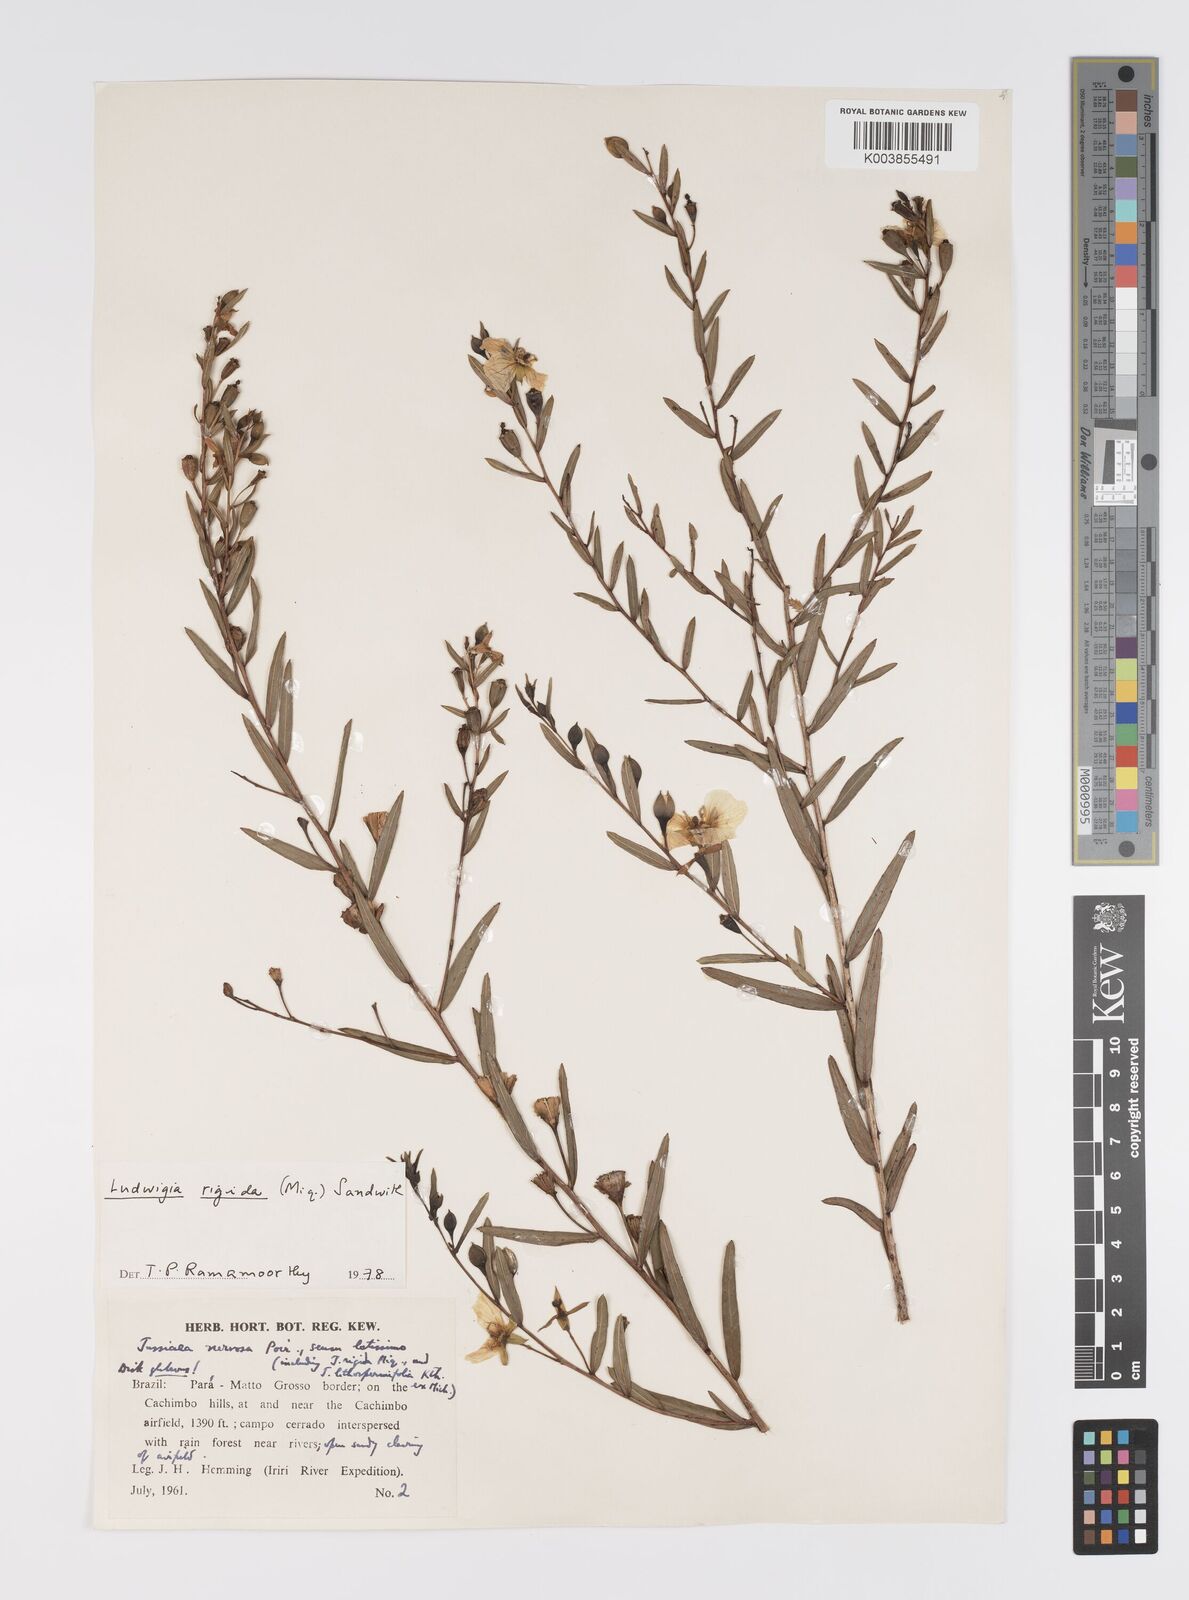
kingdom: Plantae
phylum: Tracheophyta
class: Magnoliopsida
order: Myrtales
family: Onagraceae
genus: Ludwigia
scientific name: Ludwigia rigida
